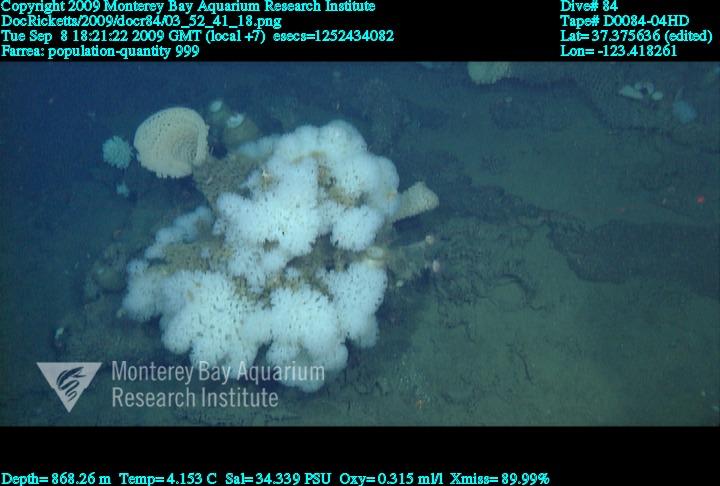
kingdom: Animalia
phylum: Porifera
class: Hexactinellida
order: Sceptrulophora
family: Farreidae
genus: Farrea
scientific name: Farrea
